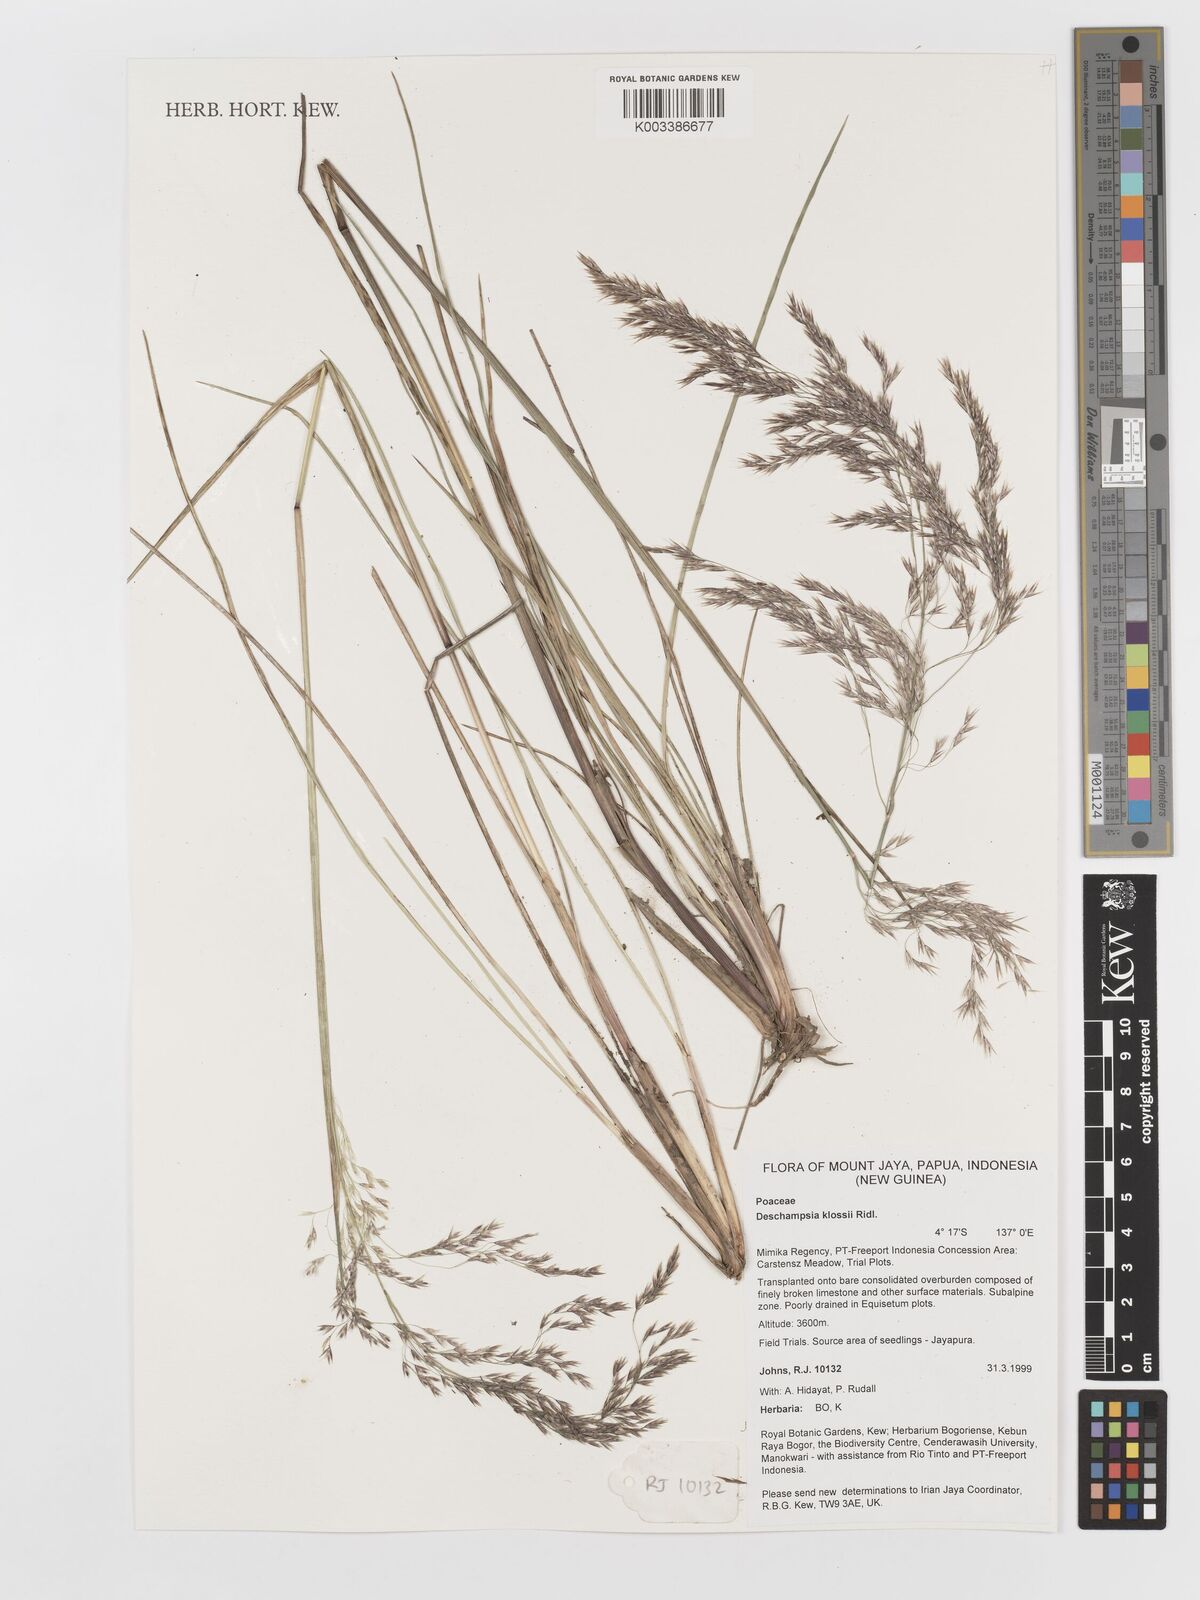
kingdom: Plantae
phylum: Tracheophyta
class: Liliopsida
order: Poales
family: Poaceae
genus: Deschampsia
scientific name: Deschampsia klossii
